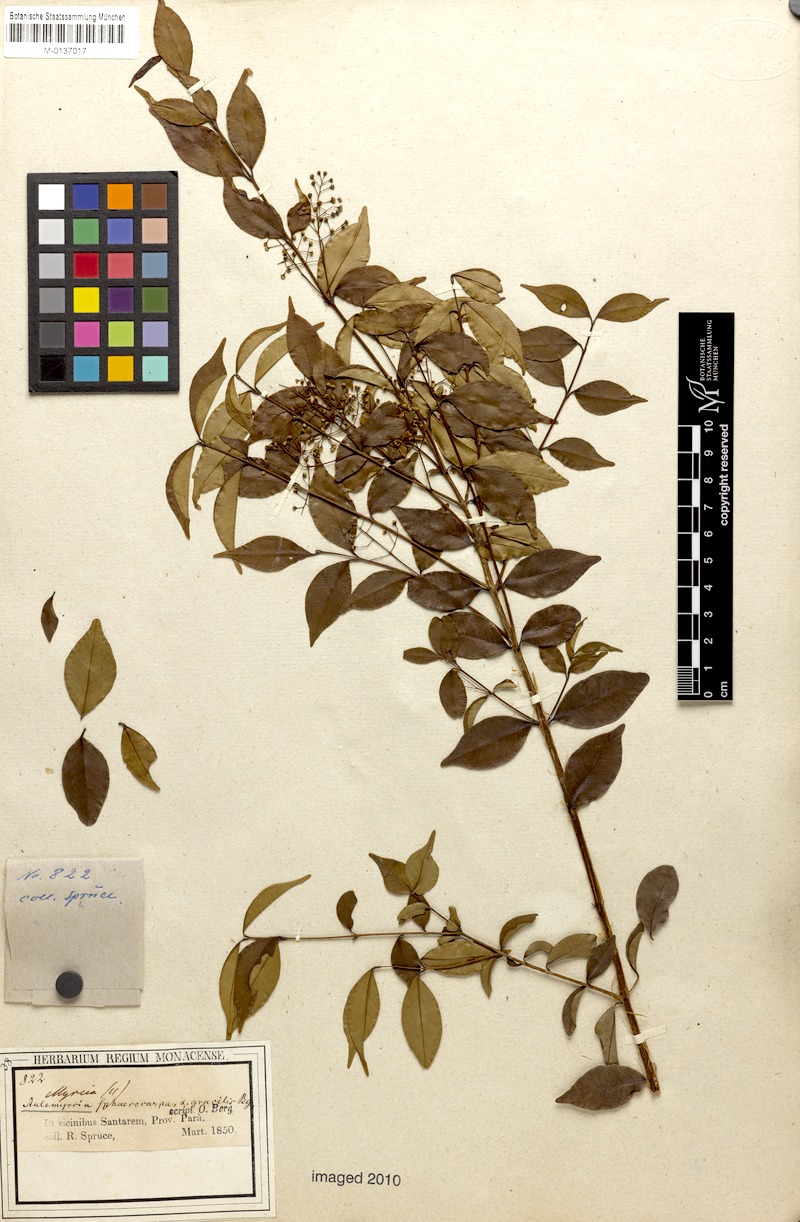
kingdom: Plantae
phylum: Tracheophyta
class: Magnoliopsida
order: Myrtales
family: Myrtaceae
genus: Myrcia
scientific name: Myrcia multiflora
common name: Pedra hume
